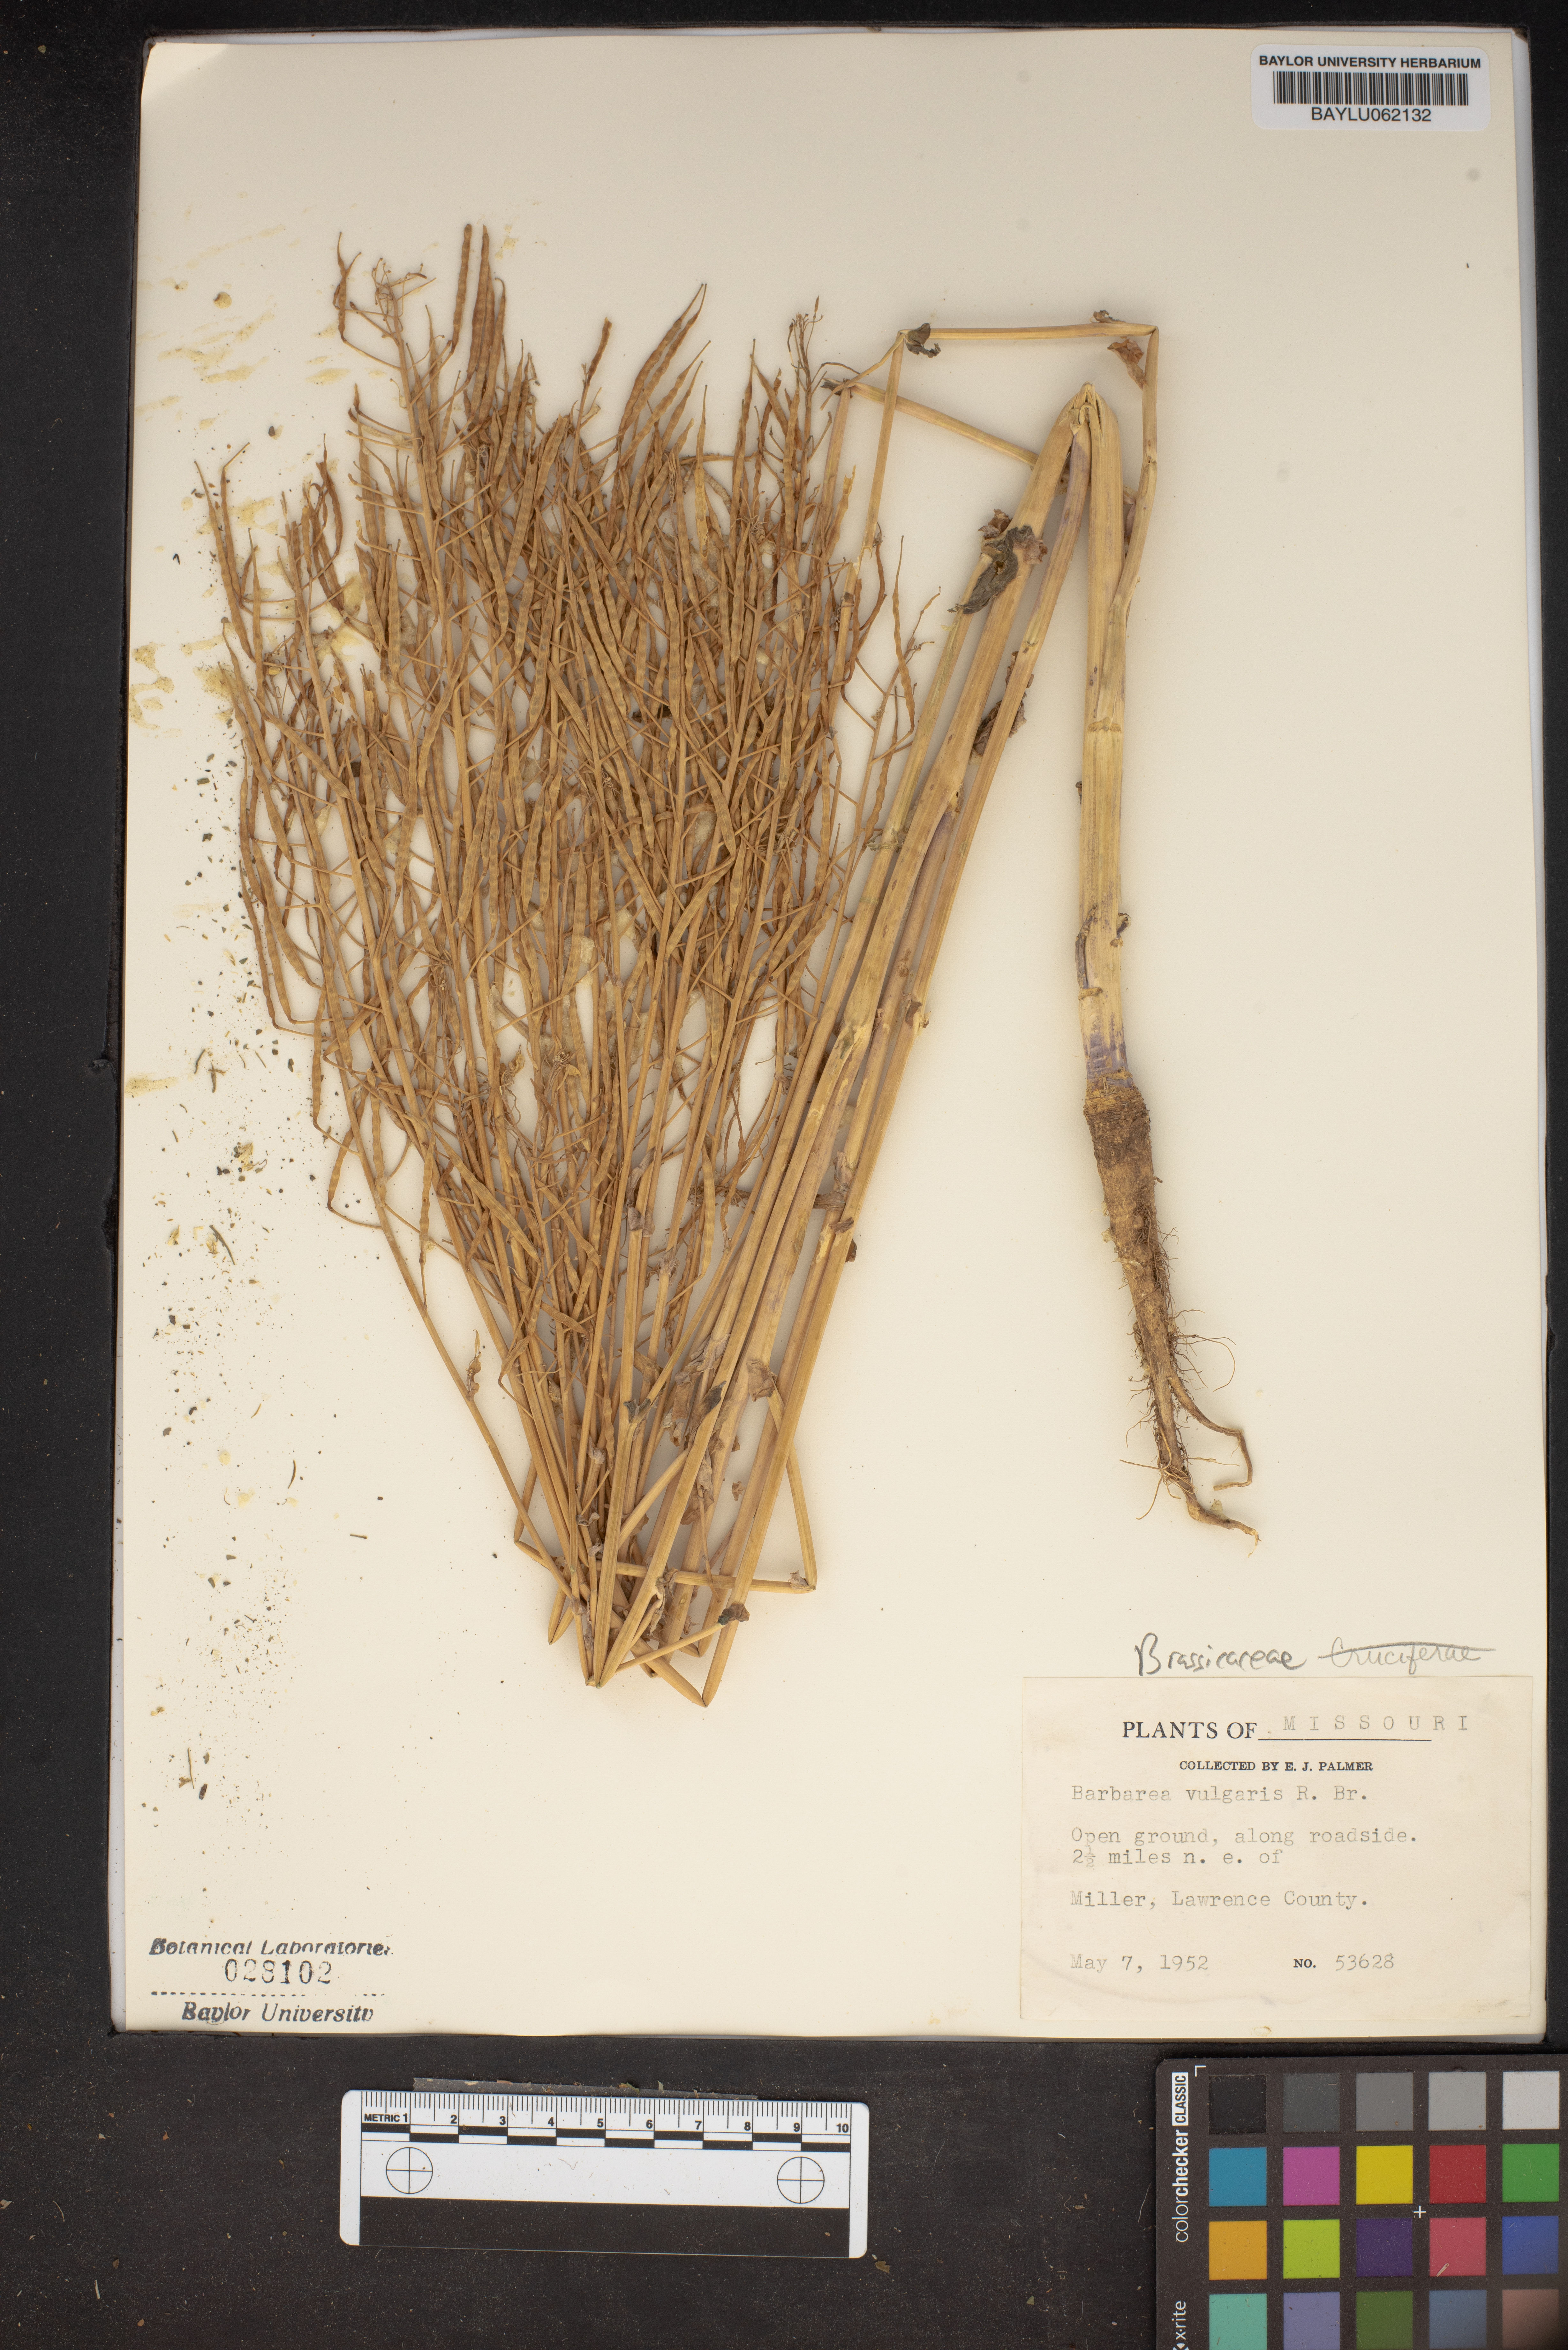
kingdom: Plantae
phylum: Tracheophyta
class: Magnoliopsida
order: Brassicales
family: Brassicaceae
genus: Barbarea
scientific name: Barbarea vulgaris
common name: Cressy-greens
